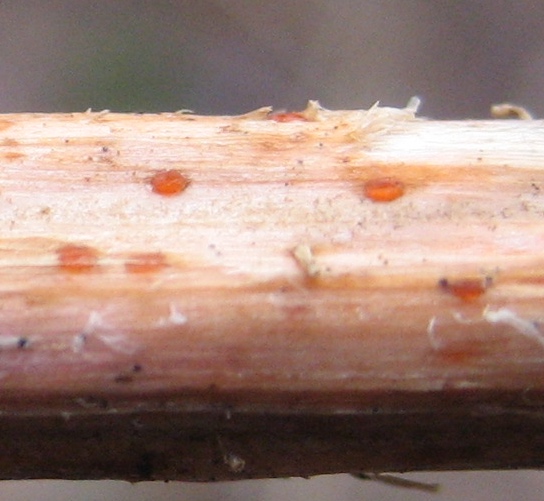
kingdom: Fungi
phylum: Ascomycota
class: Leotiomycetes
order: Helotiales
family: Calloriaceae
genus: Calloria
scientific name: Calloria urticae
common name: nælde-orangeskive
